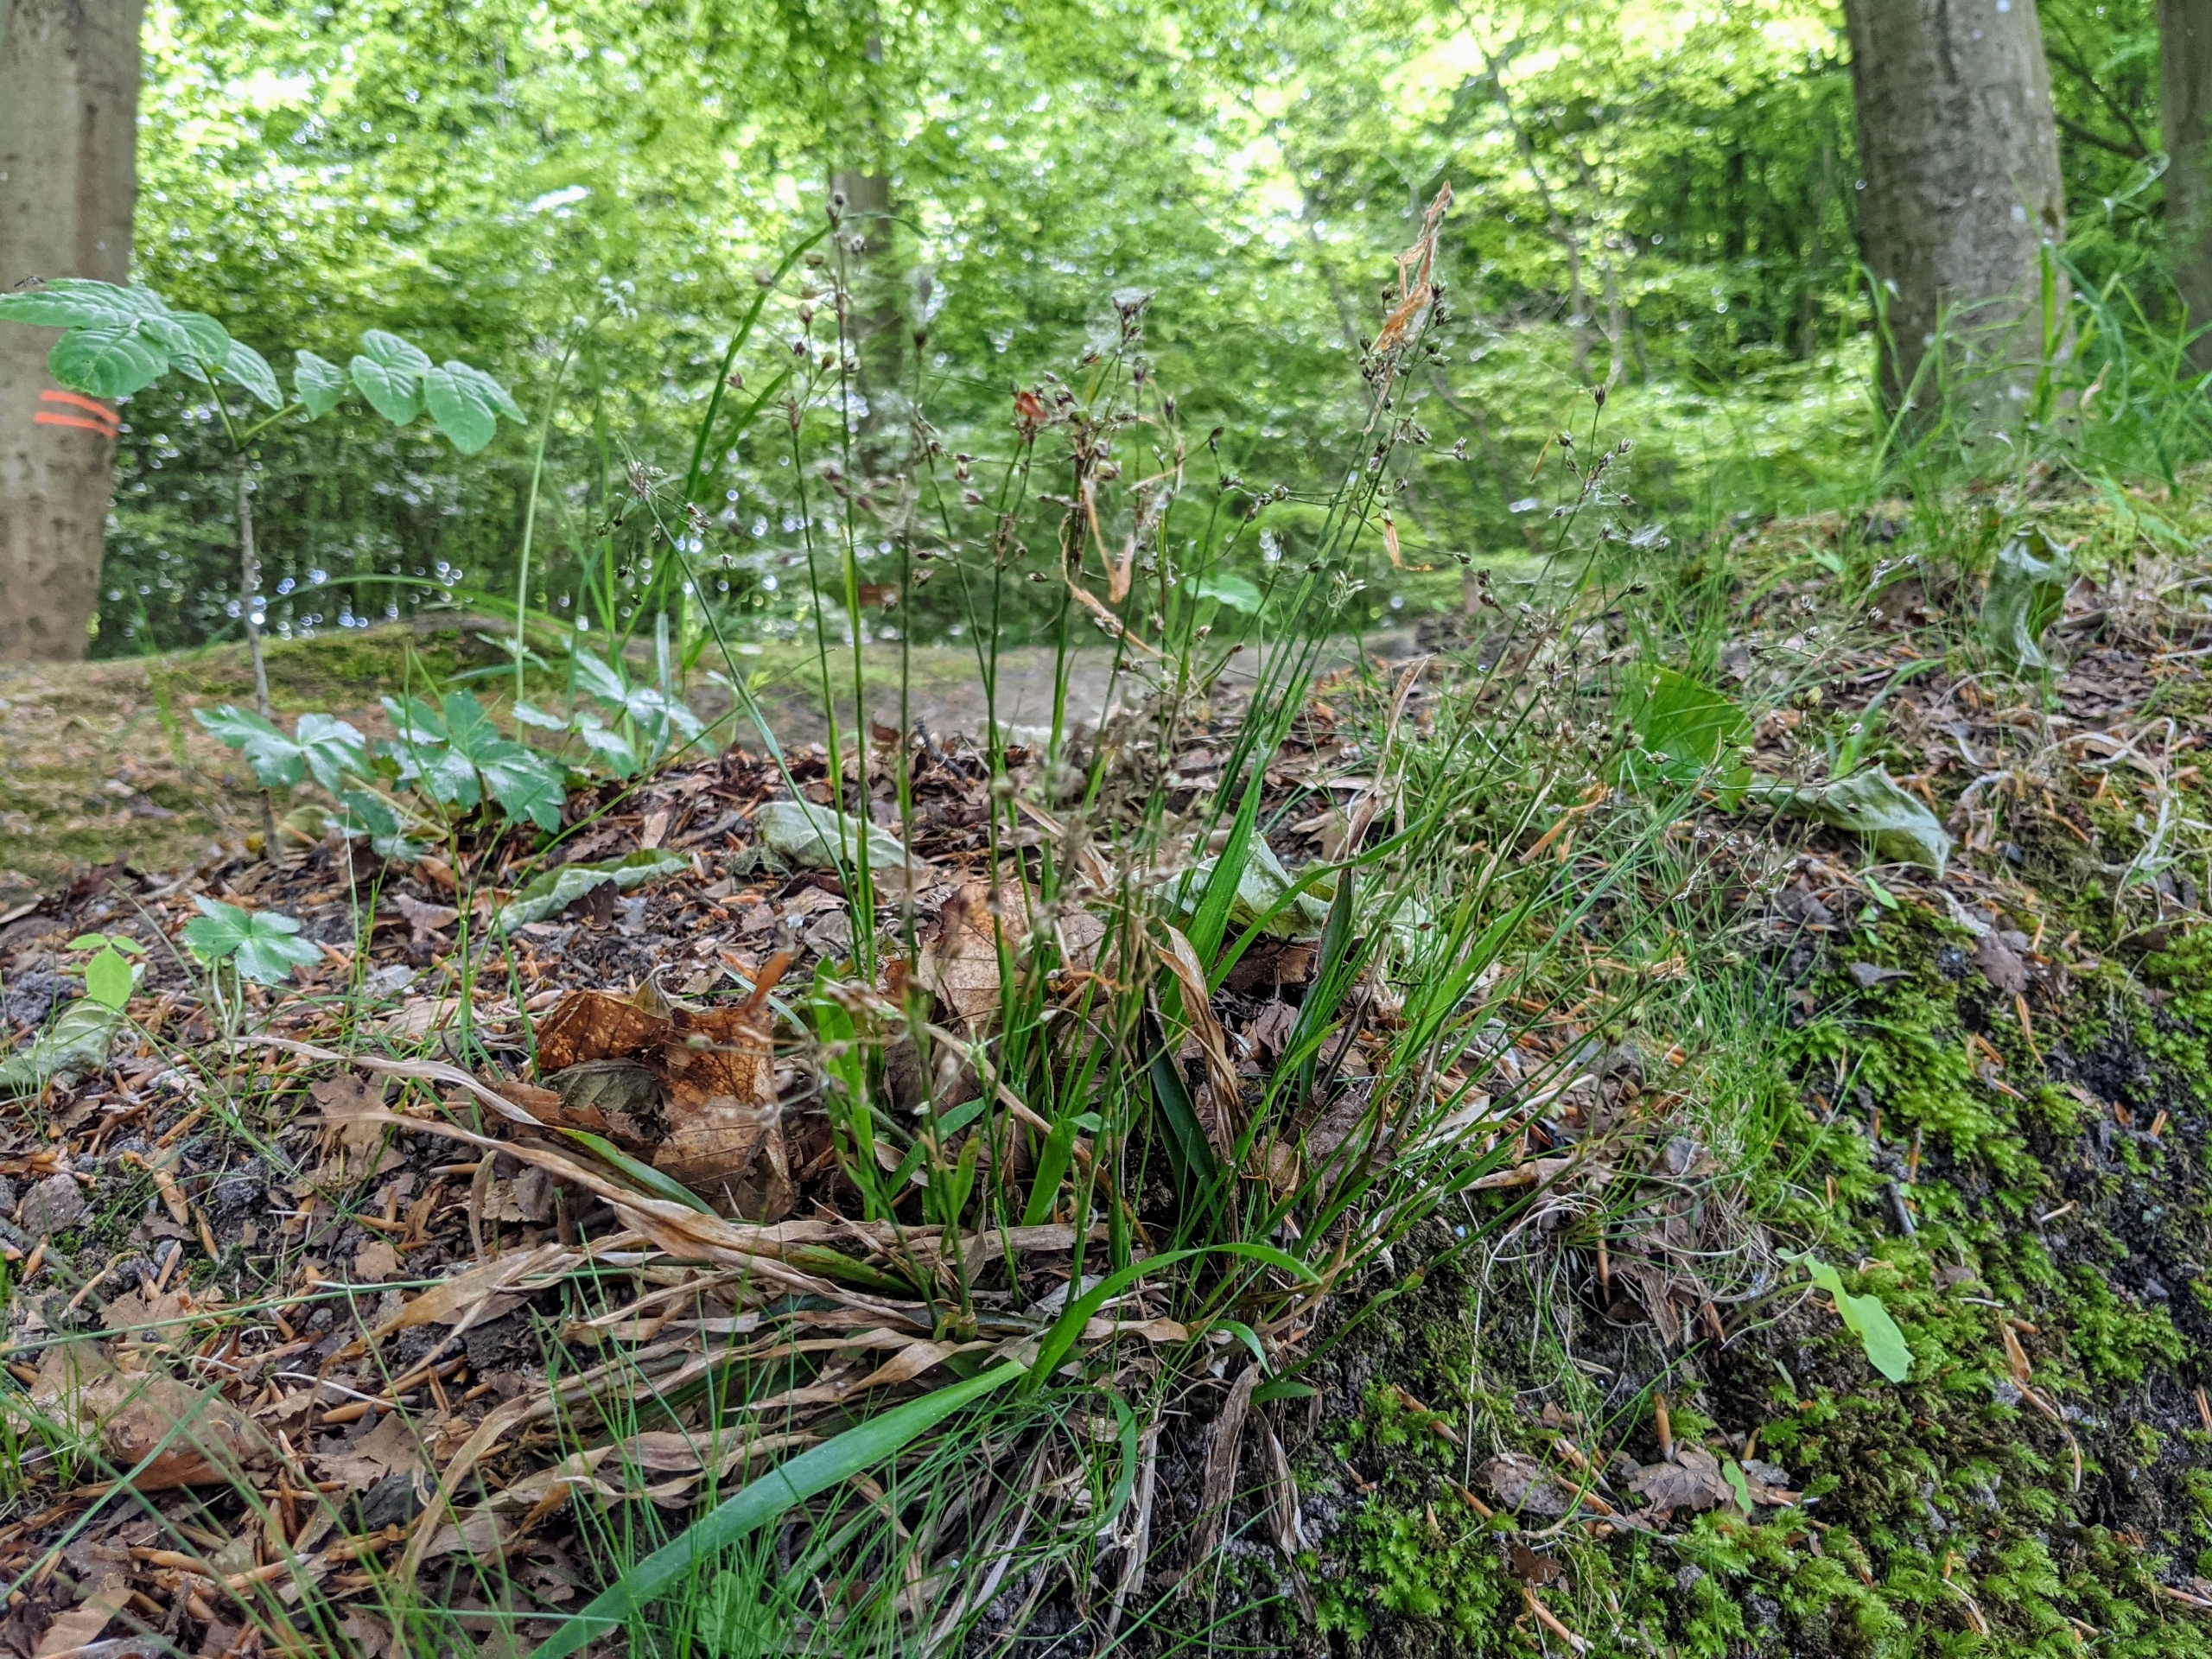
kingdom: Plantae
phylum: Tracheophyta
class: Liliopsida
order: Poales
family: Juncaceae
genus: Luzula
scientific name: Luzula pilosa
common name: Håret frytle
